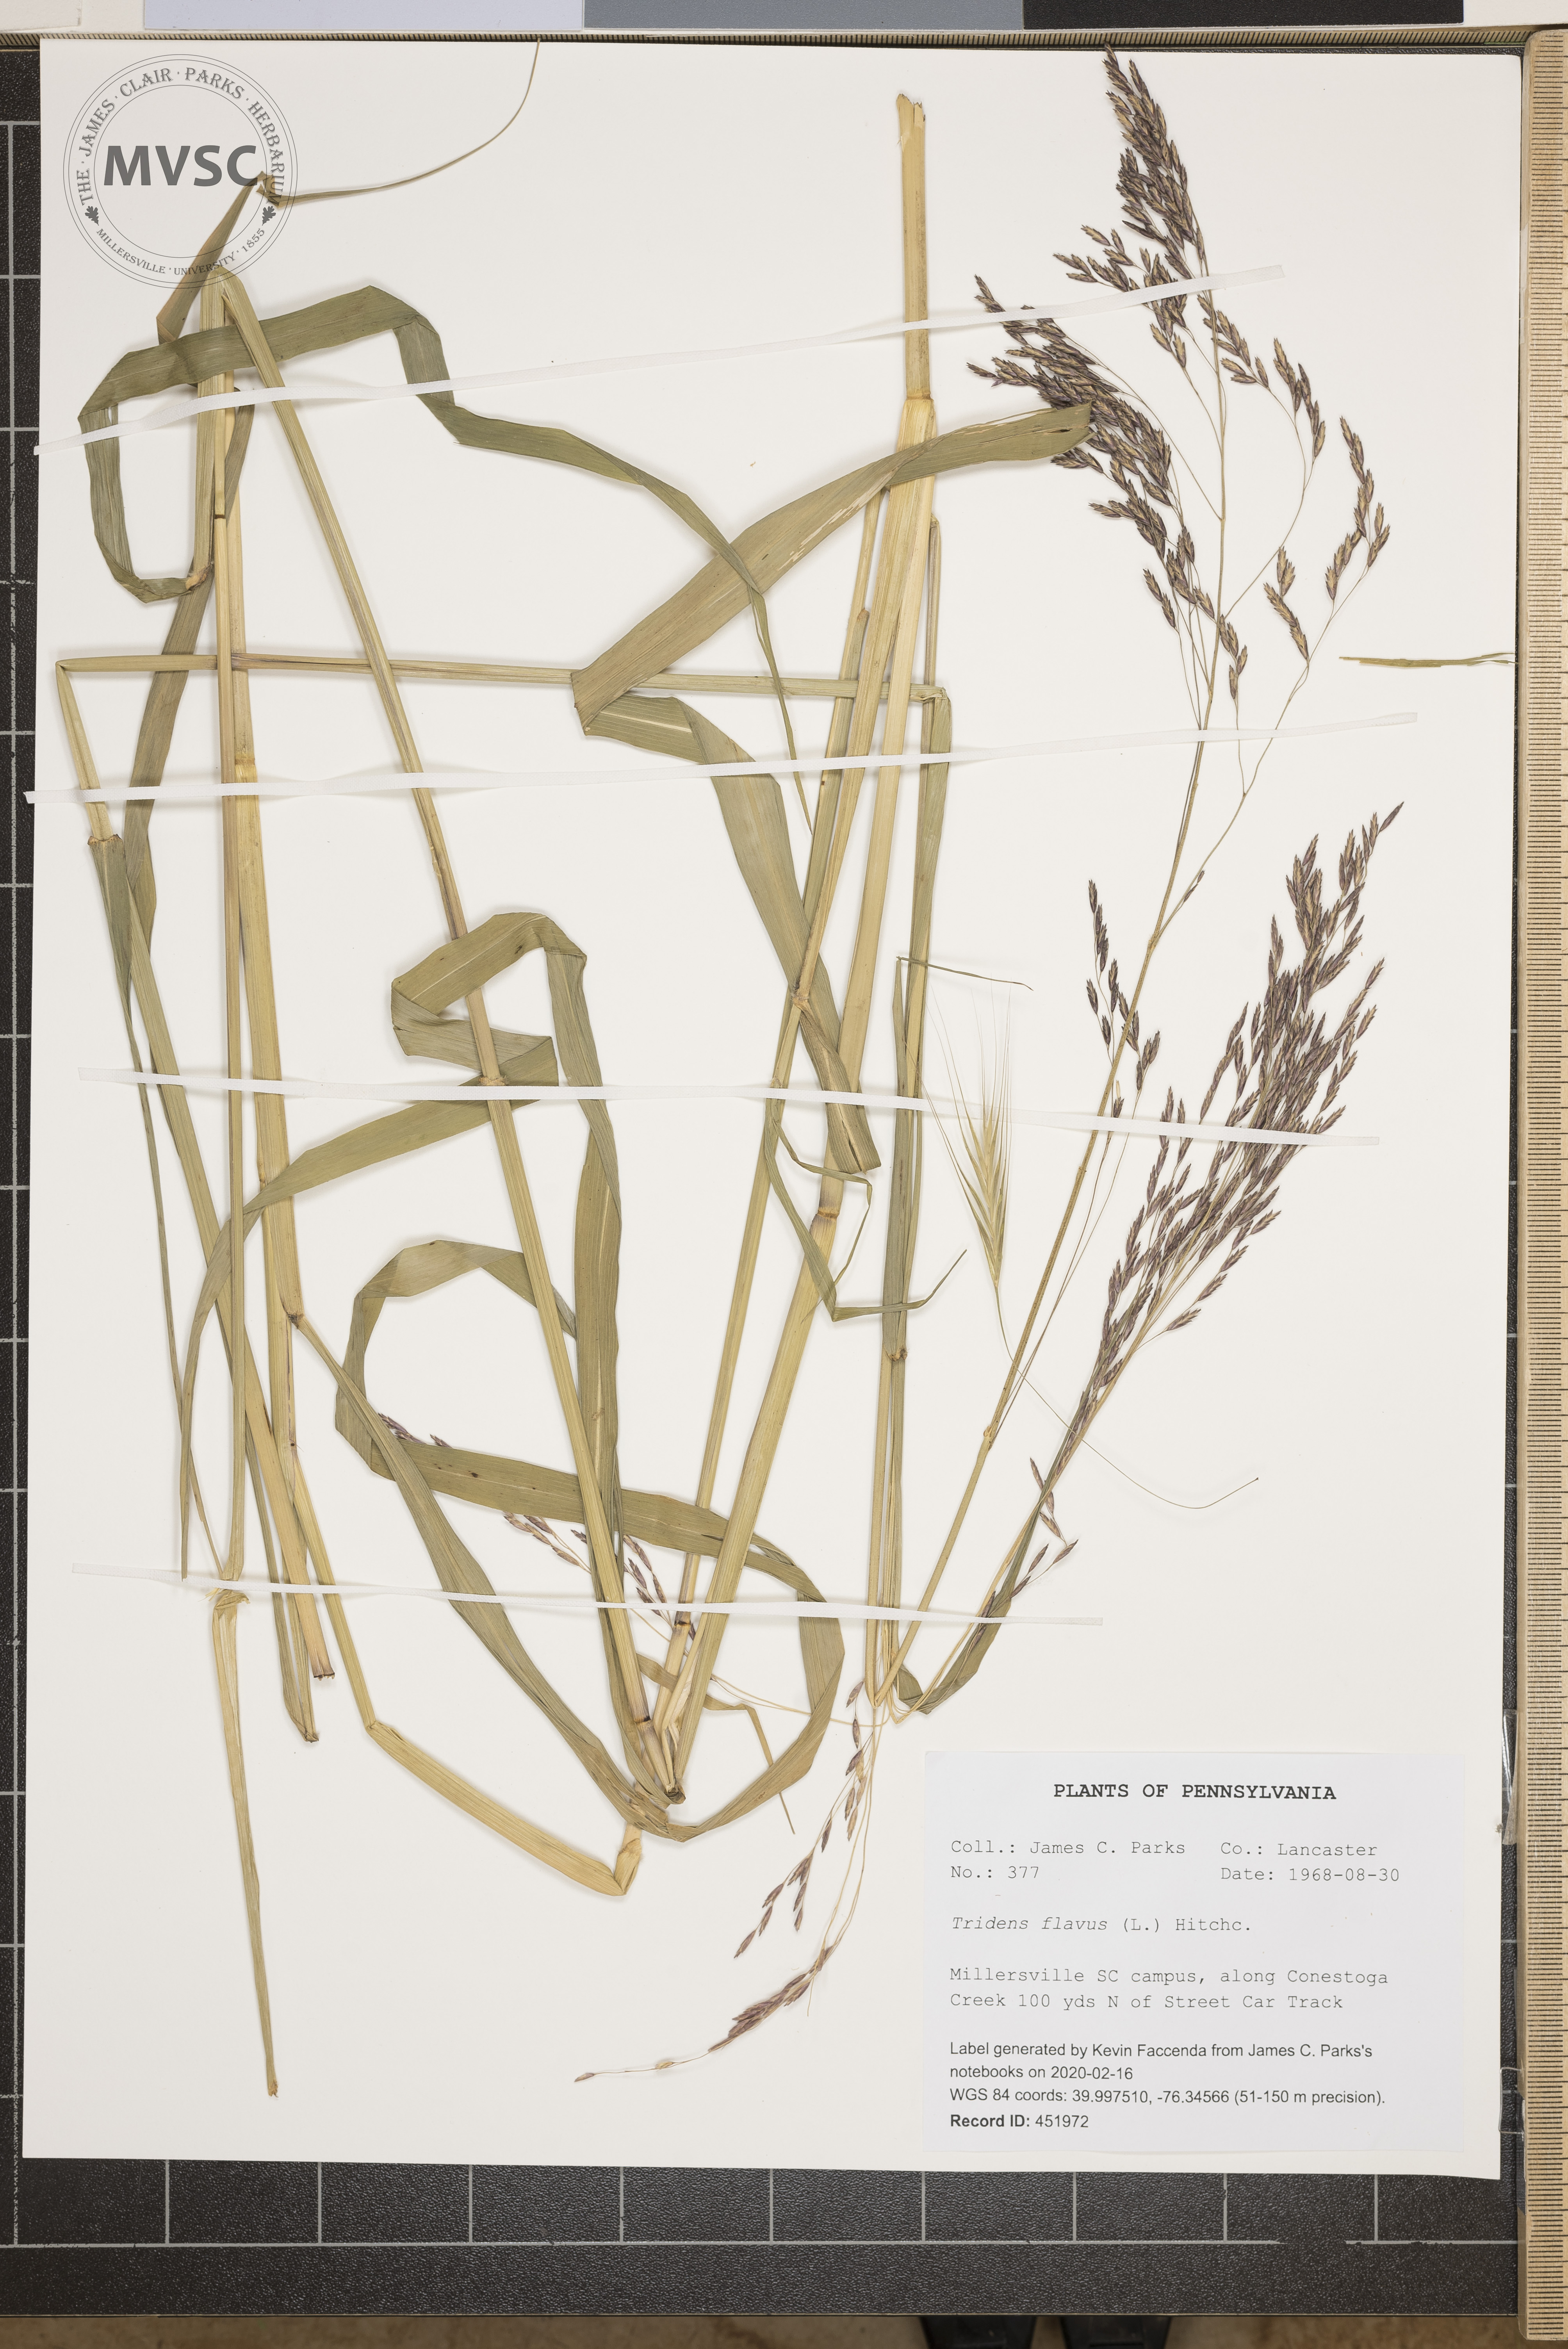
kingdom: Plantae
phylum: Tracheophyta
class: Liliopsida
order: Poales
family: Poaceae
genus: Tridens
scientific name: Tridens flavus
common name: Purpletop
